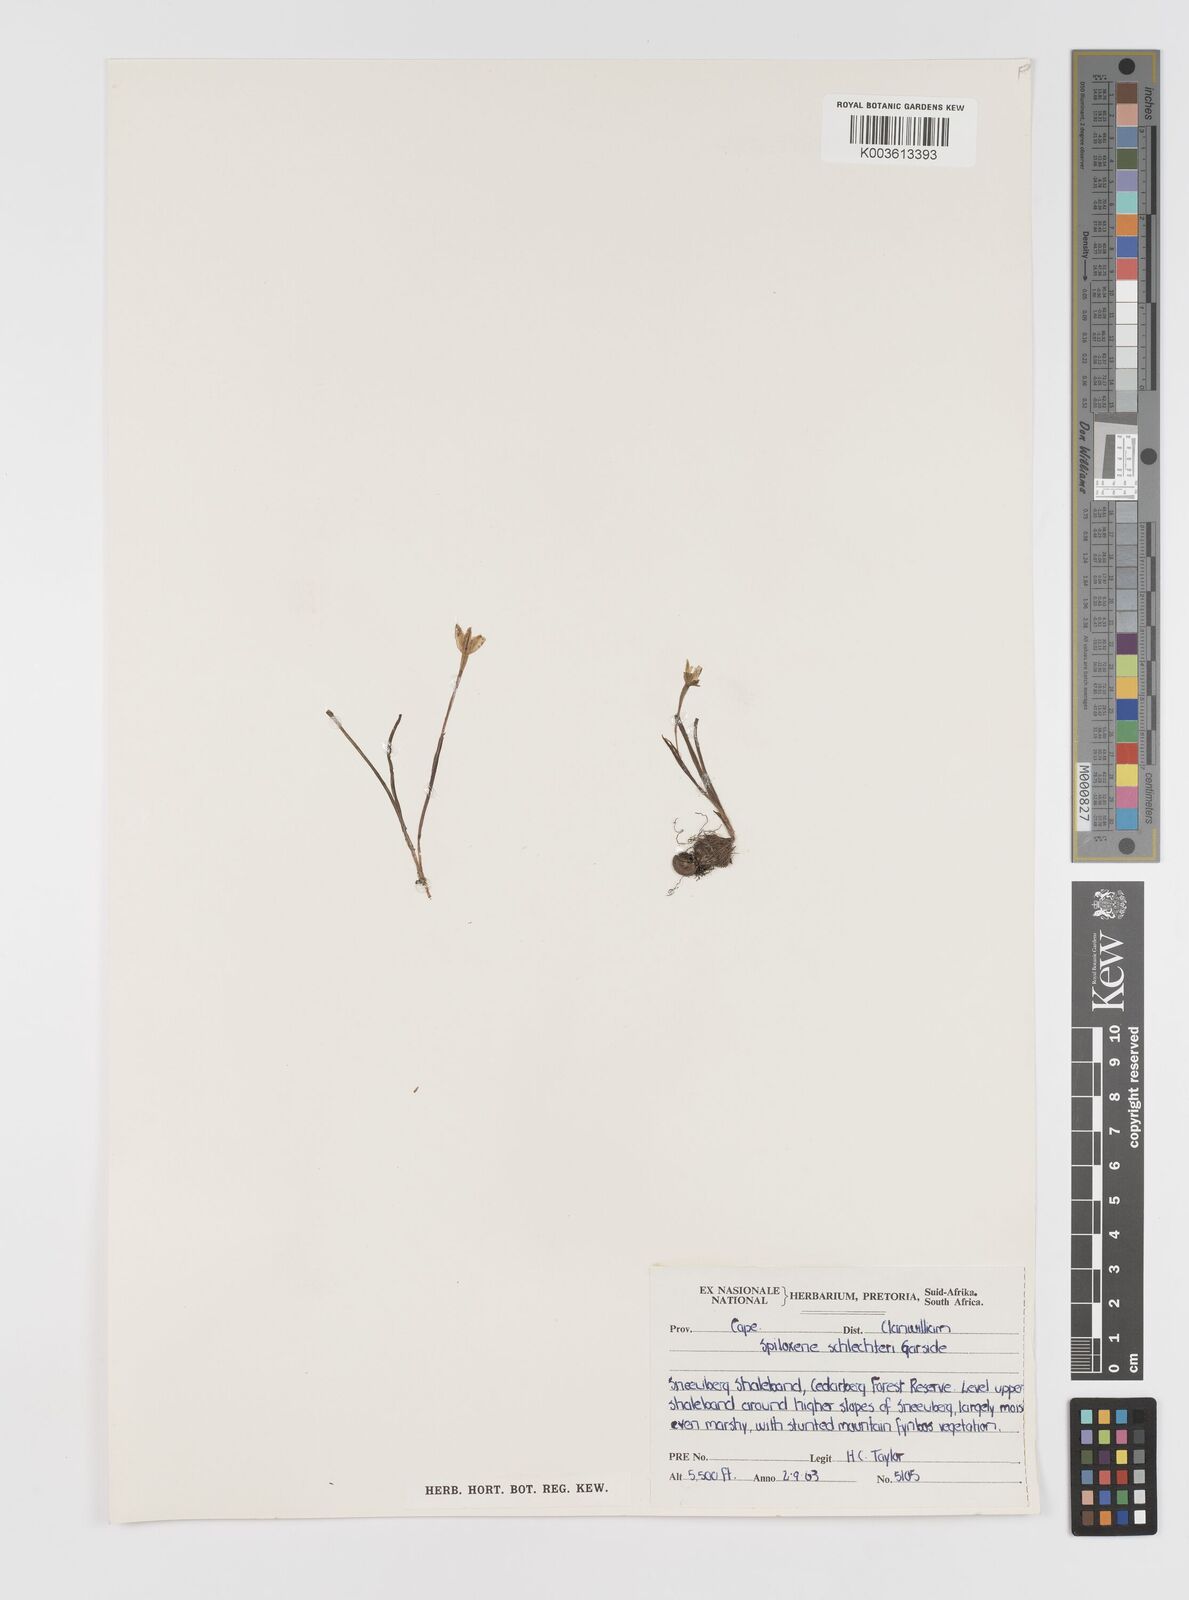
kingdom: Plantae
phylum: Tracheophyta
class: Liliopsida
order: Asparagales
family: Hypoxidaceae
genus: Pauridia
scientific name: Pauridia affinis
